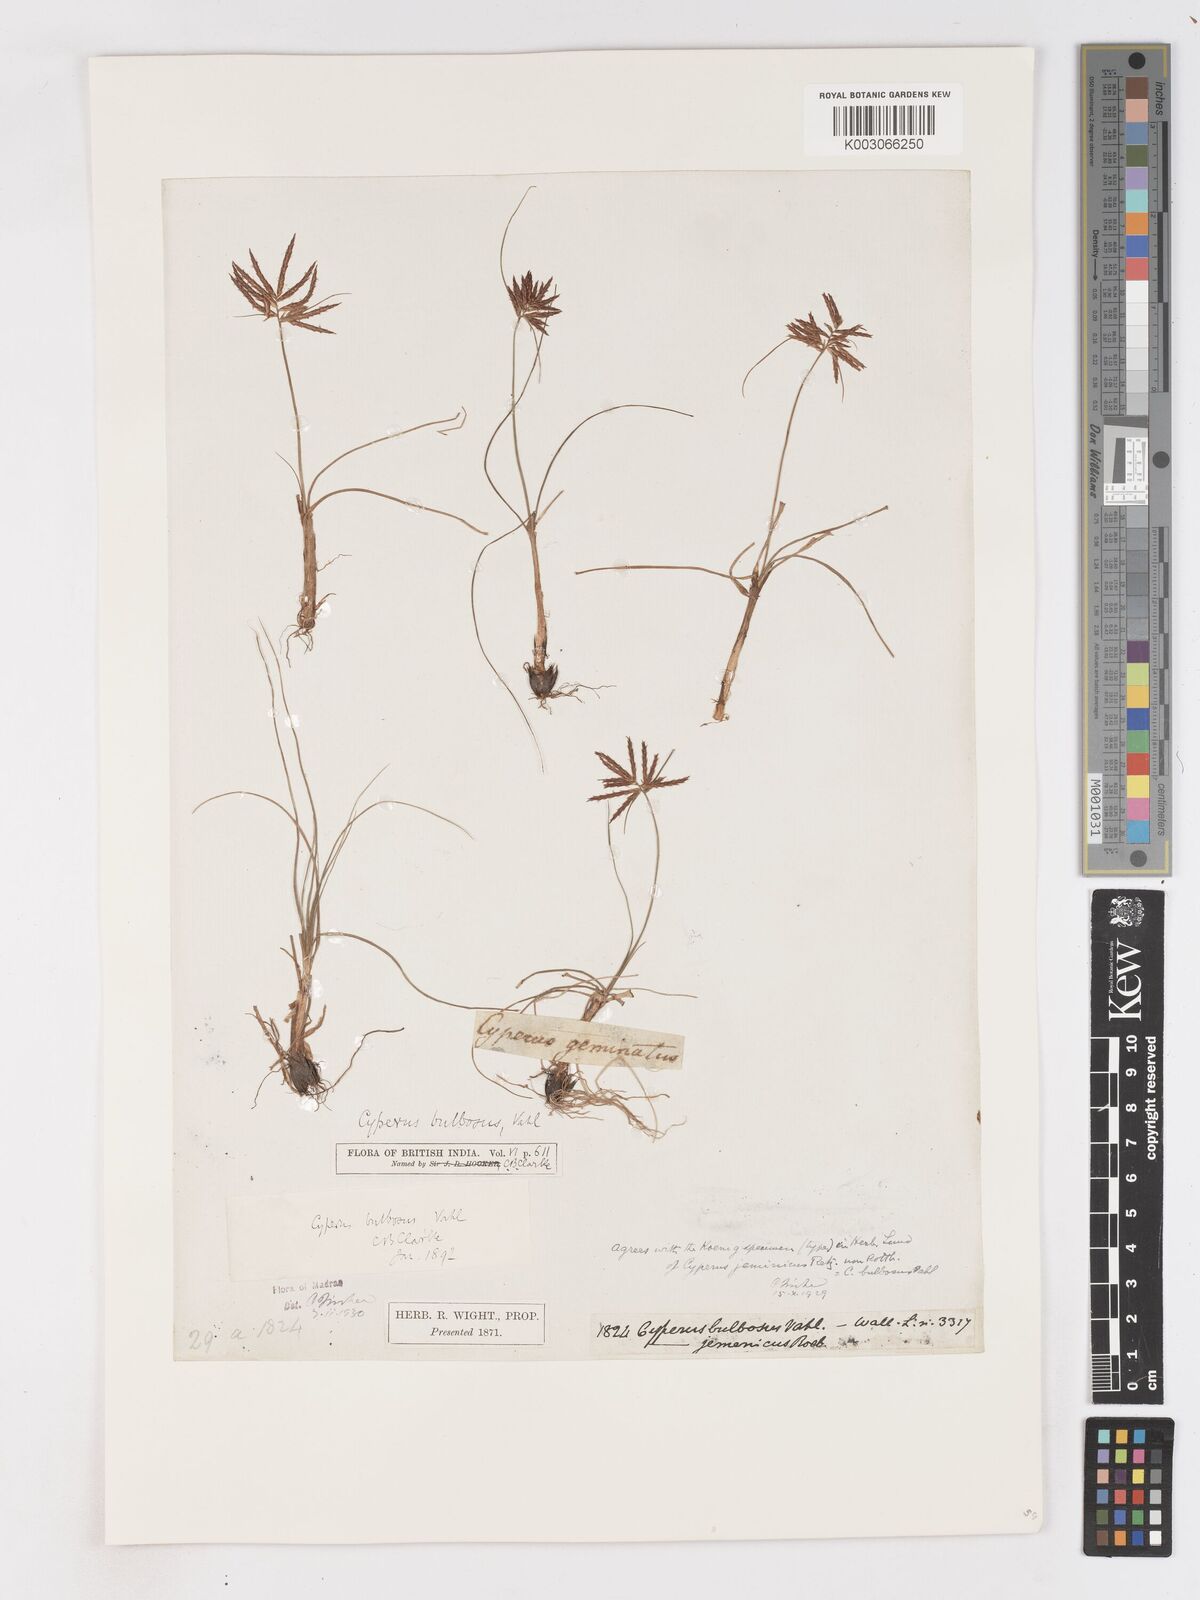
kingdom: Plantae
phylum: Tracheophyta
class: Liliopsida
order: Poales
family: Cyperaceae
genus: Cyperus
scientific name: Cyperus bulbosus
